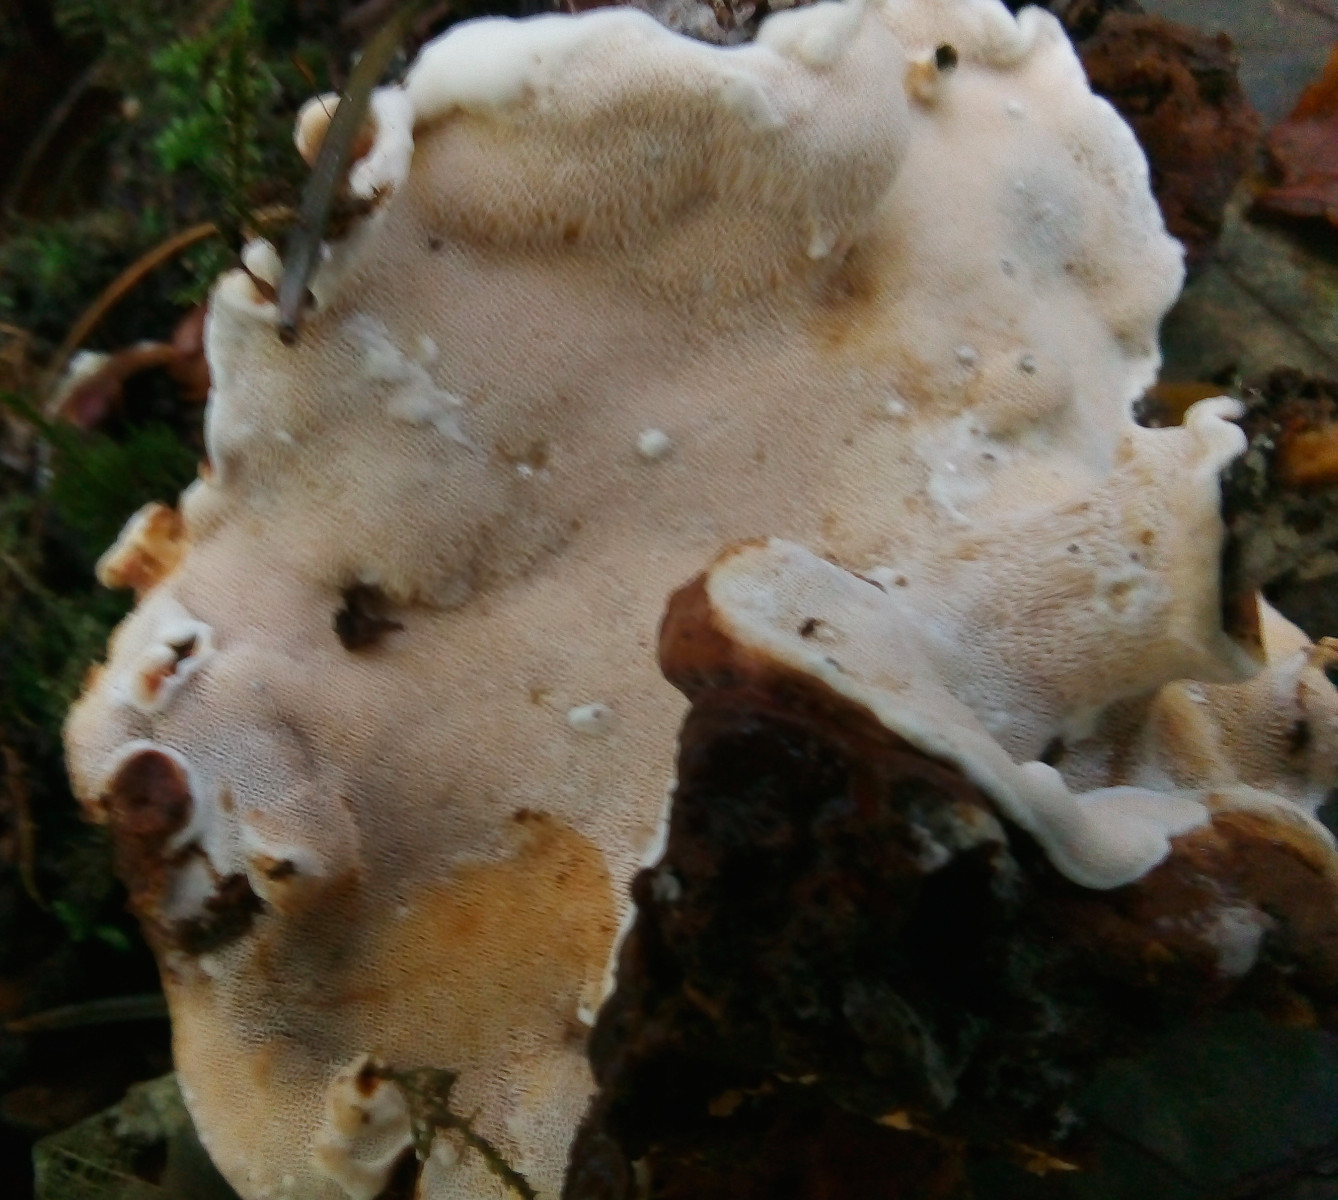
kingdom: Fungi
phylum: Basidiomycota
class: Agaricomycetes
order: Russulales
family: Bondarzewiaceae
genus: Heterobasidion
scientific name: Heterobasidion annosum
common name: almindelig rodfordærver
